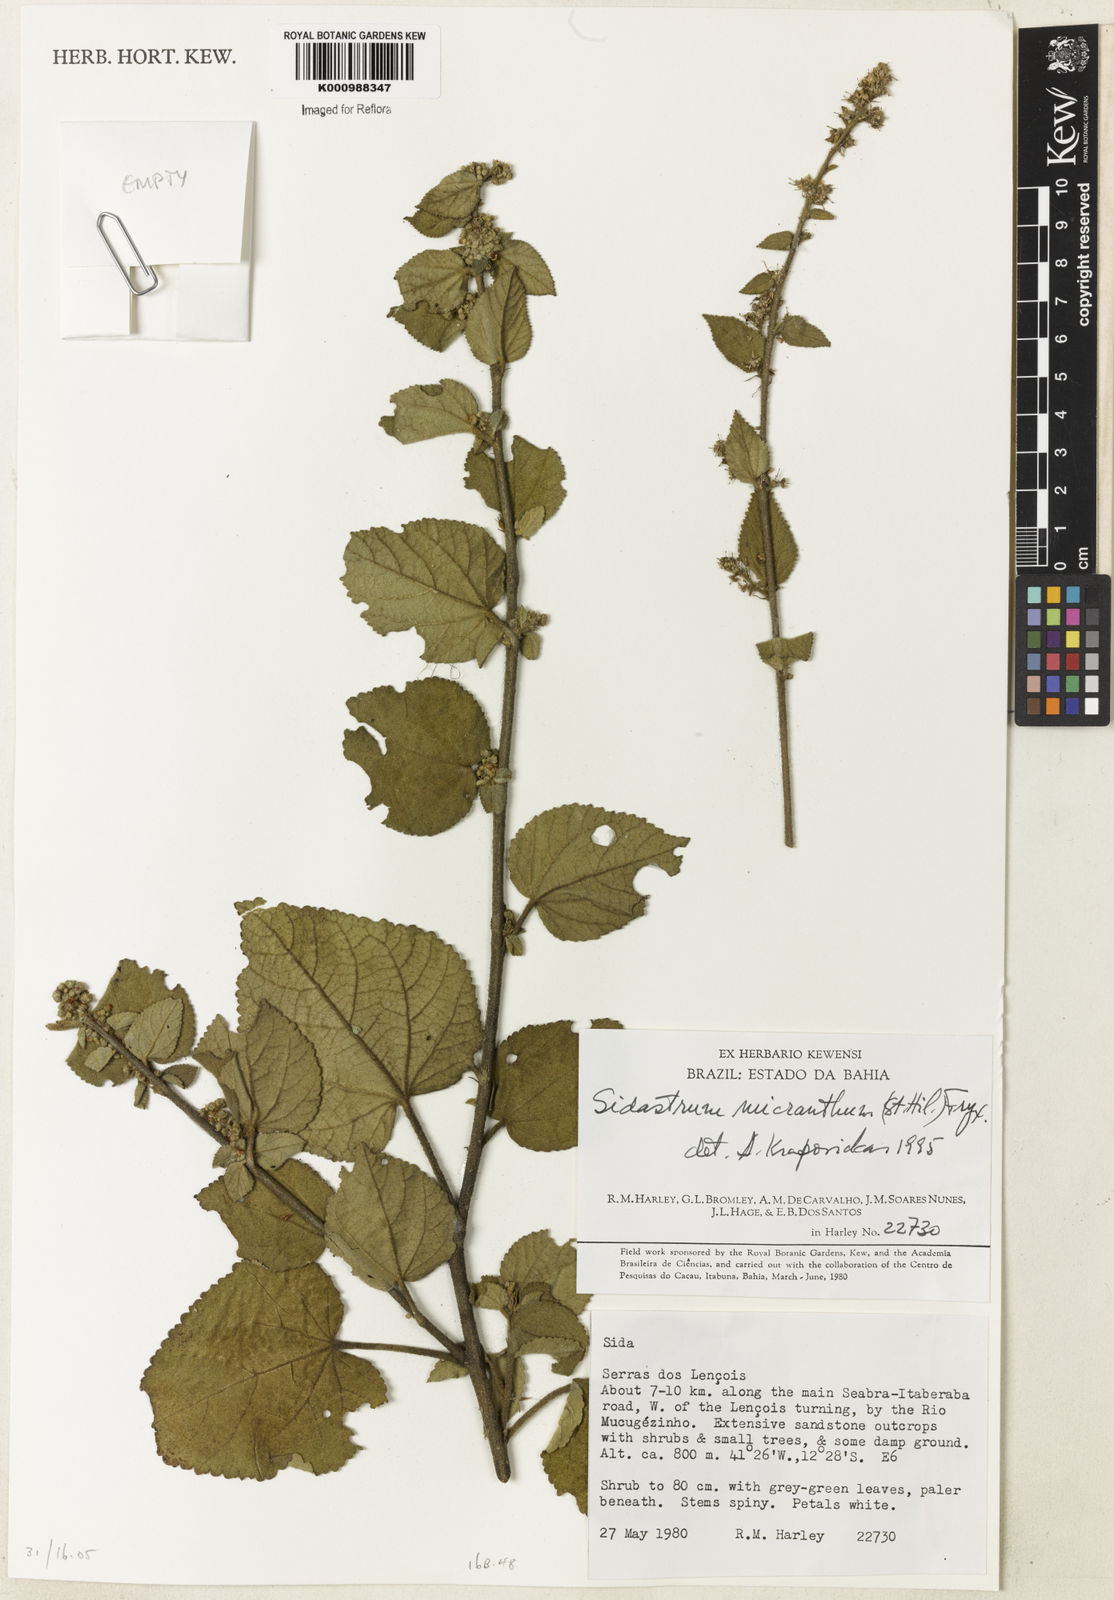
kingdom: Plantae
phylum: Tracheophyta
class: Magnoliopsida
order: Malvales
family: Malvaceae
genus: Sidastrum
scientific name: Sidastrum micranthum
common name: Dainty sandmallow
